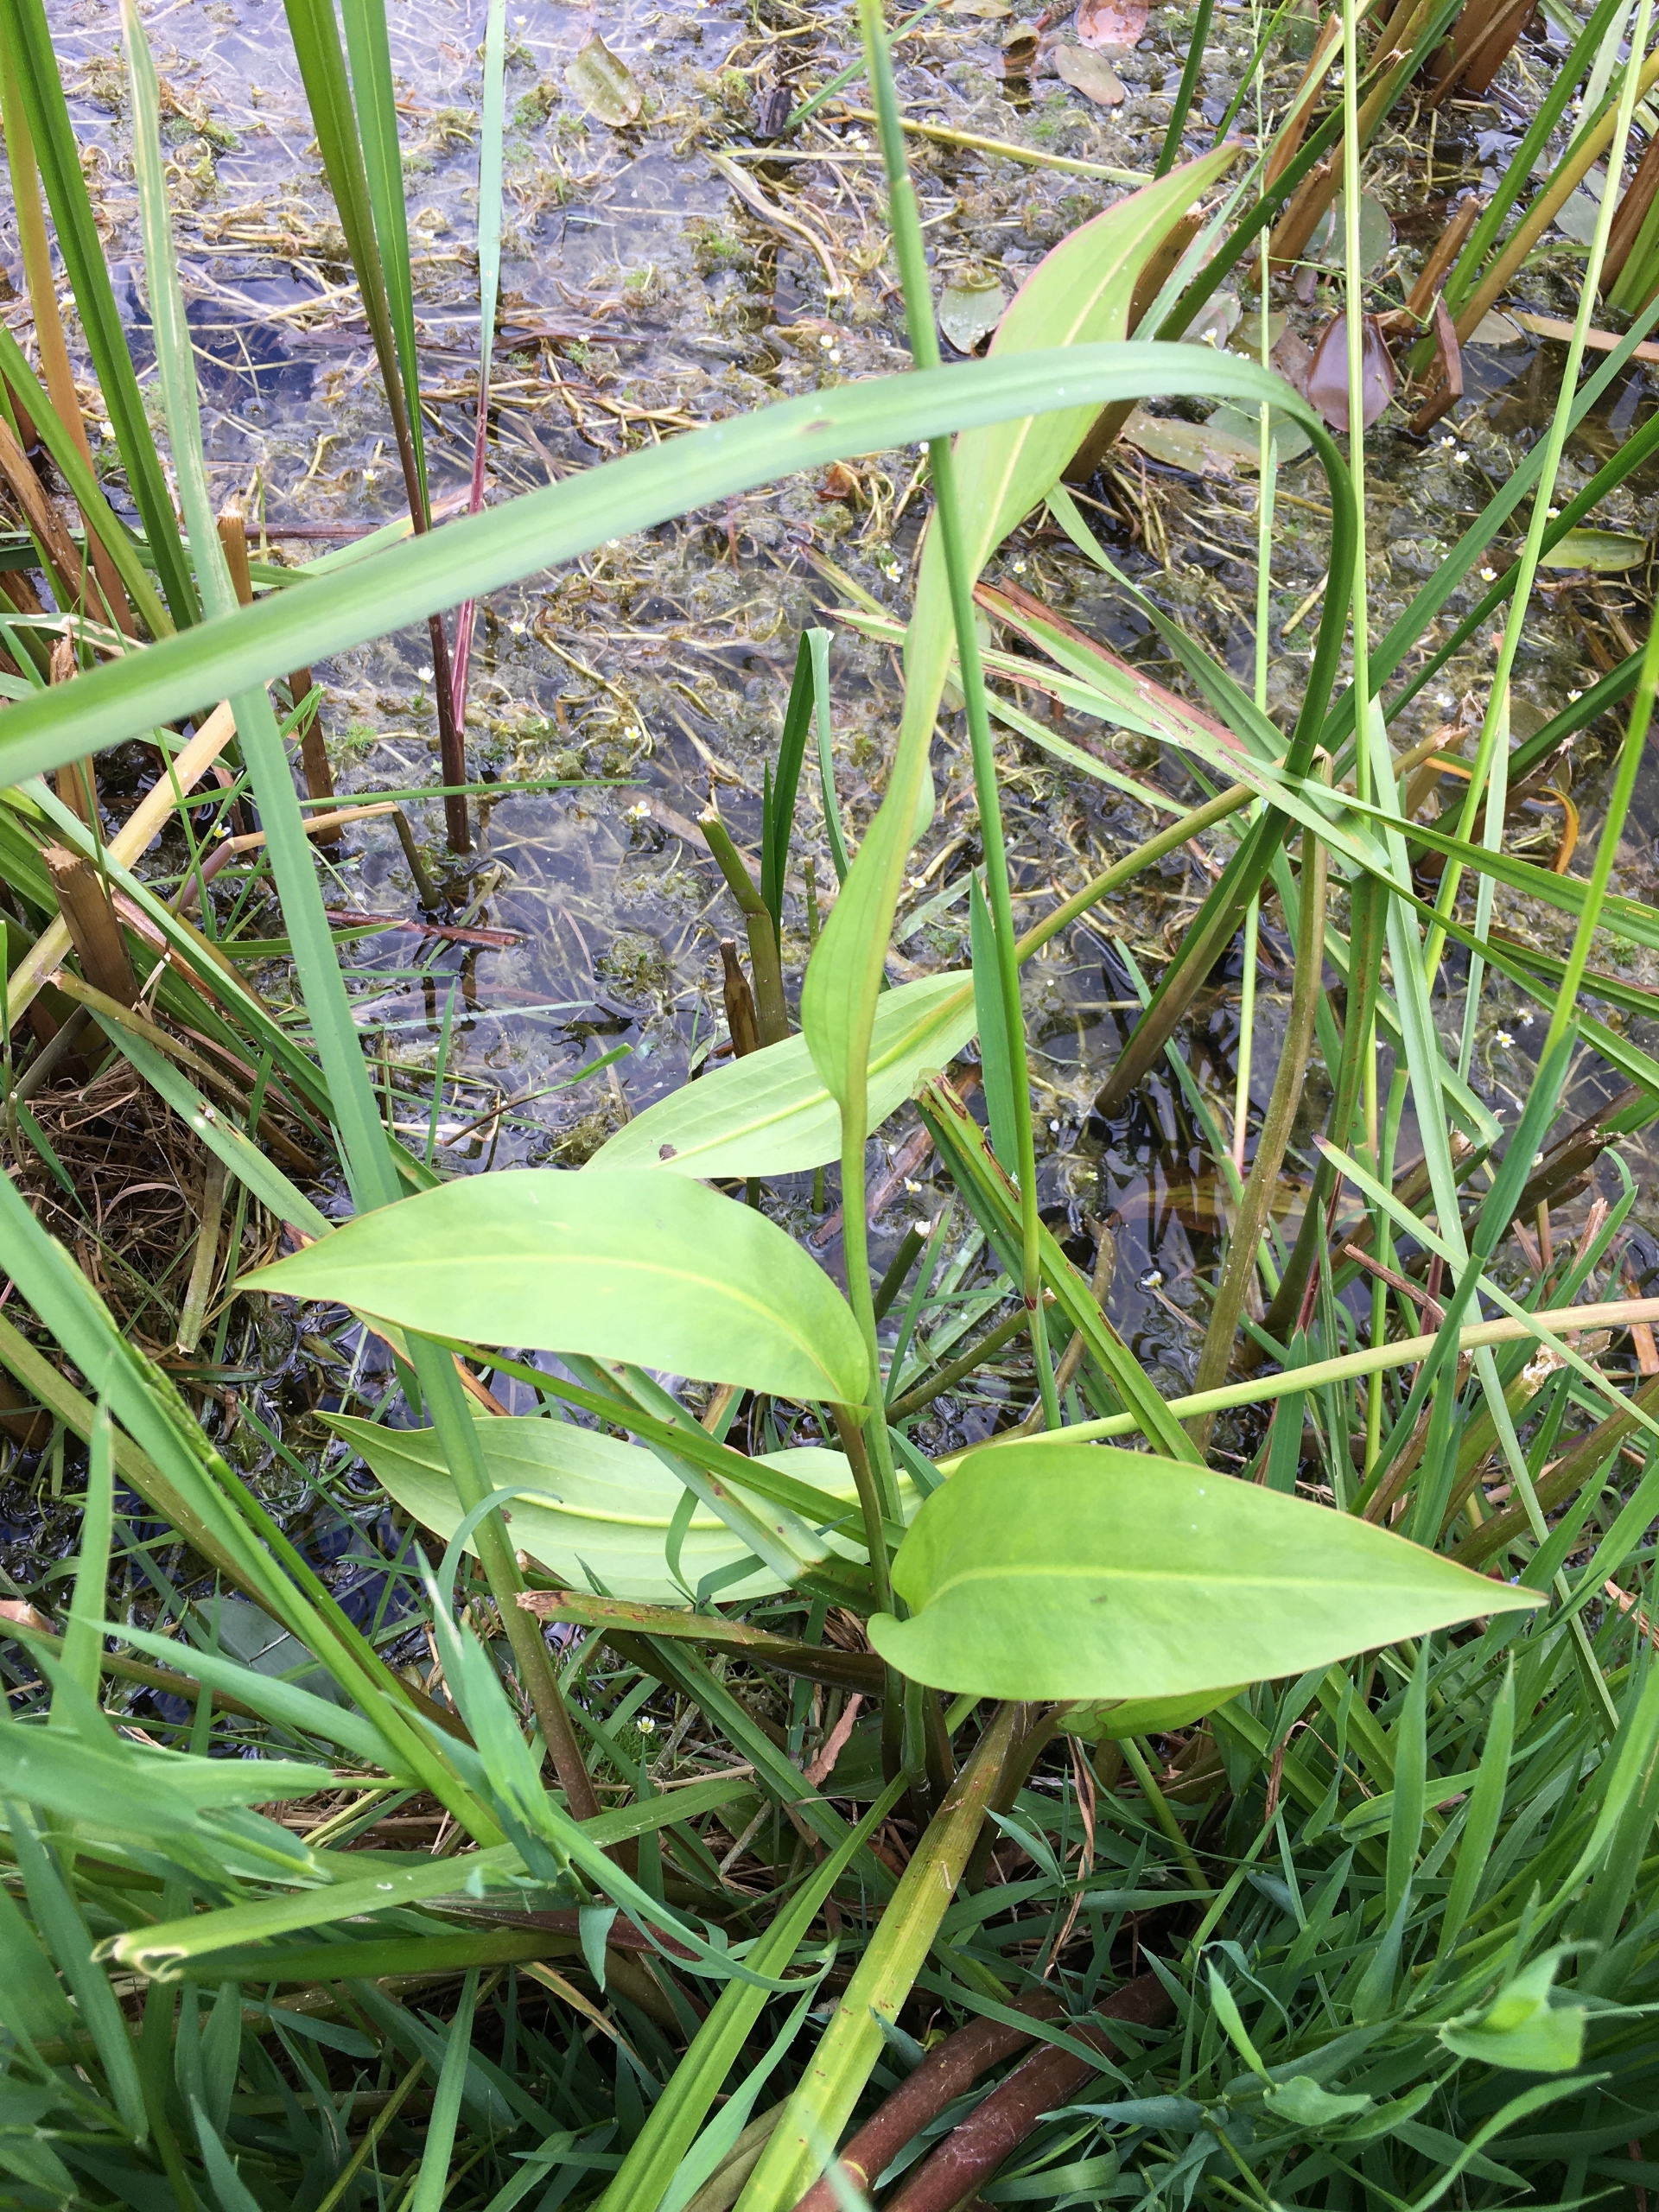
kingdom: Plantae
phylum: Tracheophyta
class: Liliopsida
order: Alismatales
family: Alismataceae
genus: Alisma
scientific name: Alisma plantago-aquatica
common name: Vejbred-skeblad
